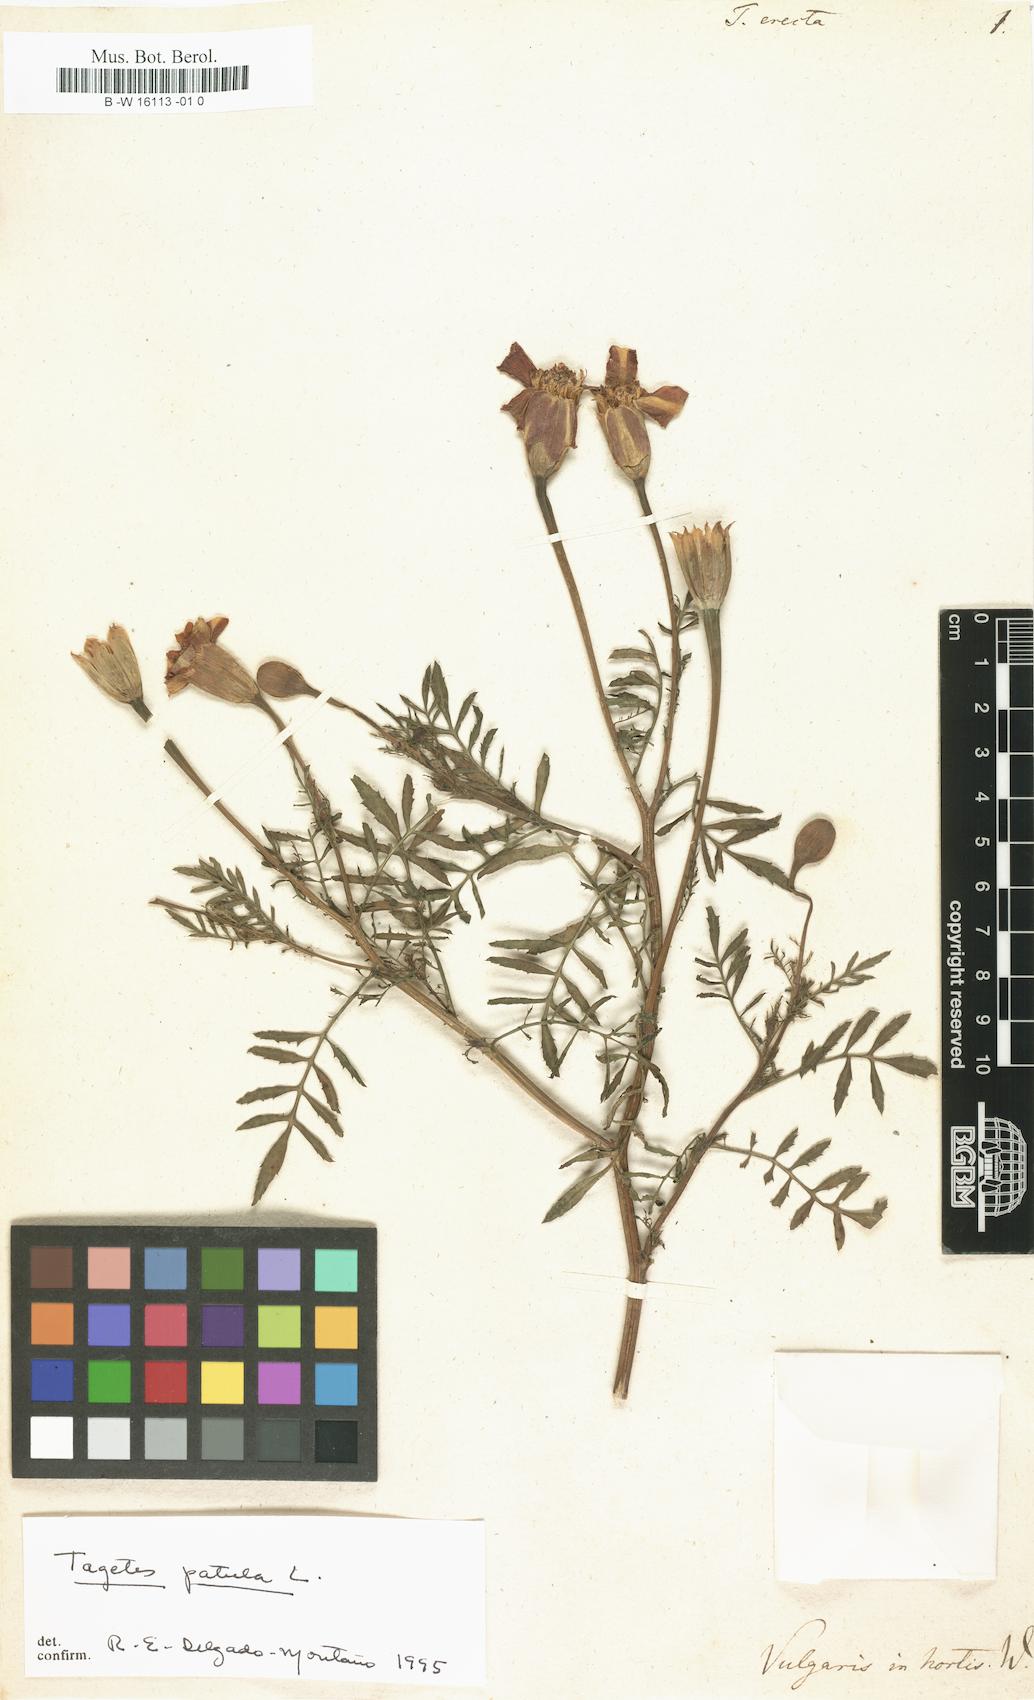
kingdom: Plantae
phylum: Tracheophyta
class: Magnoliopsida
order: Asterales
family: Asteraceae
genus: Tagetes
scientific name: Tagetes erecta
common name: African marigold
